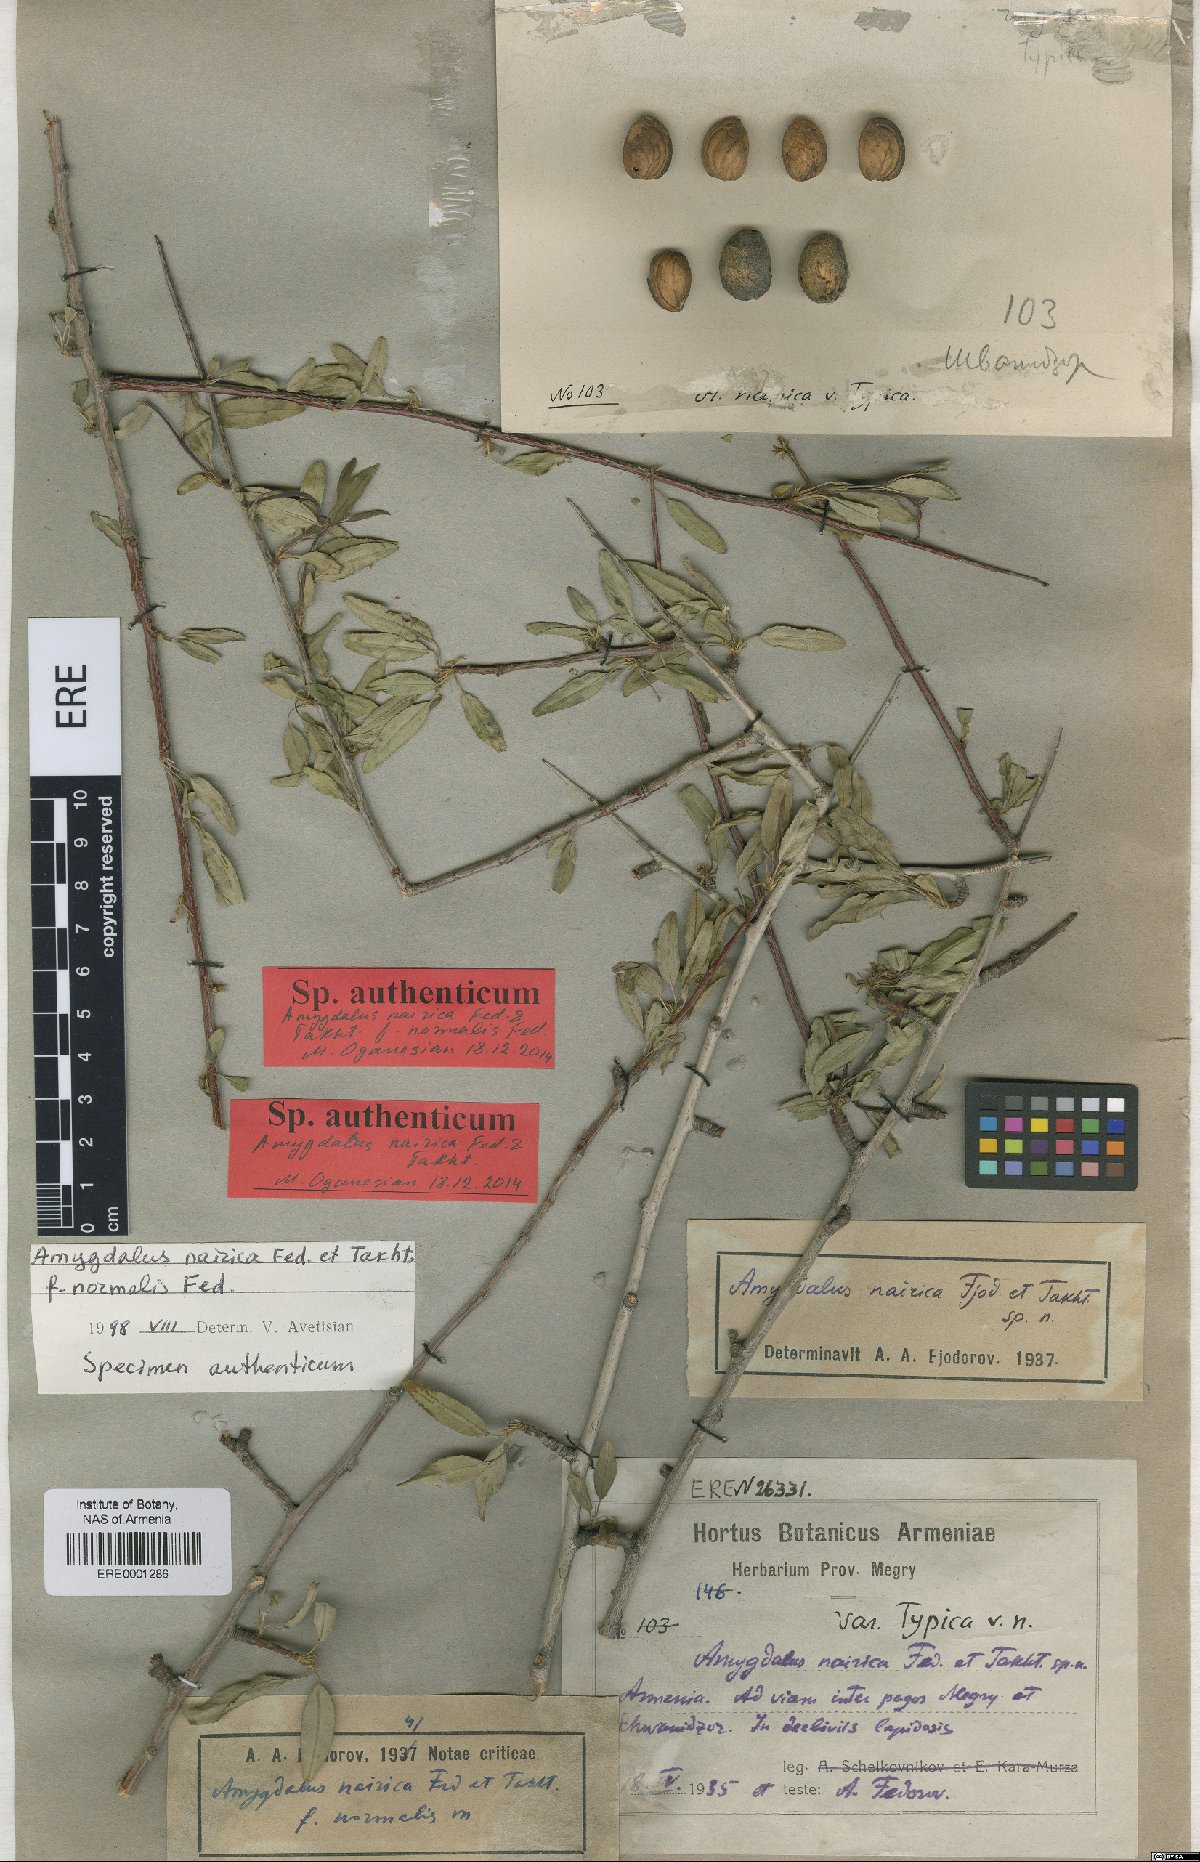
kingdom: Plantae
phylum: Tracheophyta
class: Magnoliopsida
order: Rosales
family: Rosaceae
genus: Prunus
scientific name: Prunus nairica
